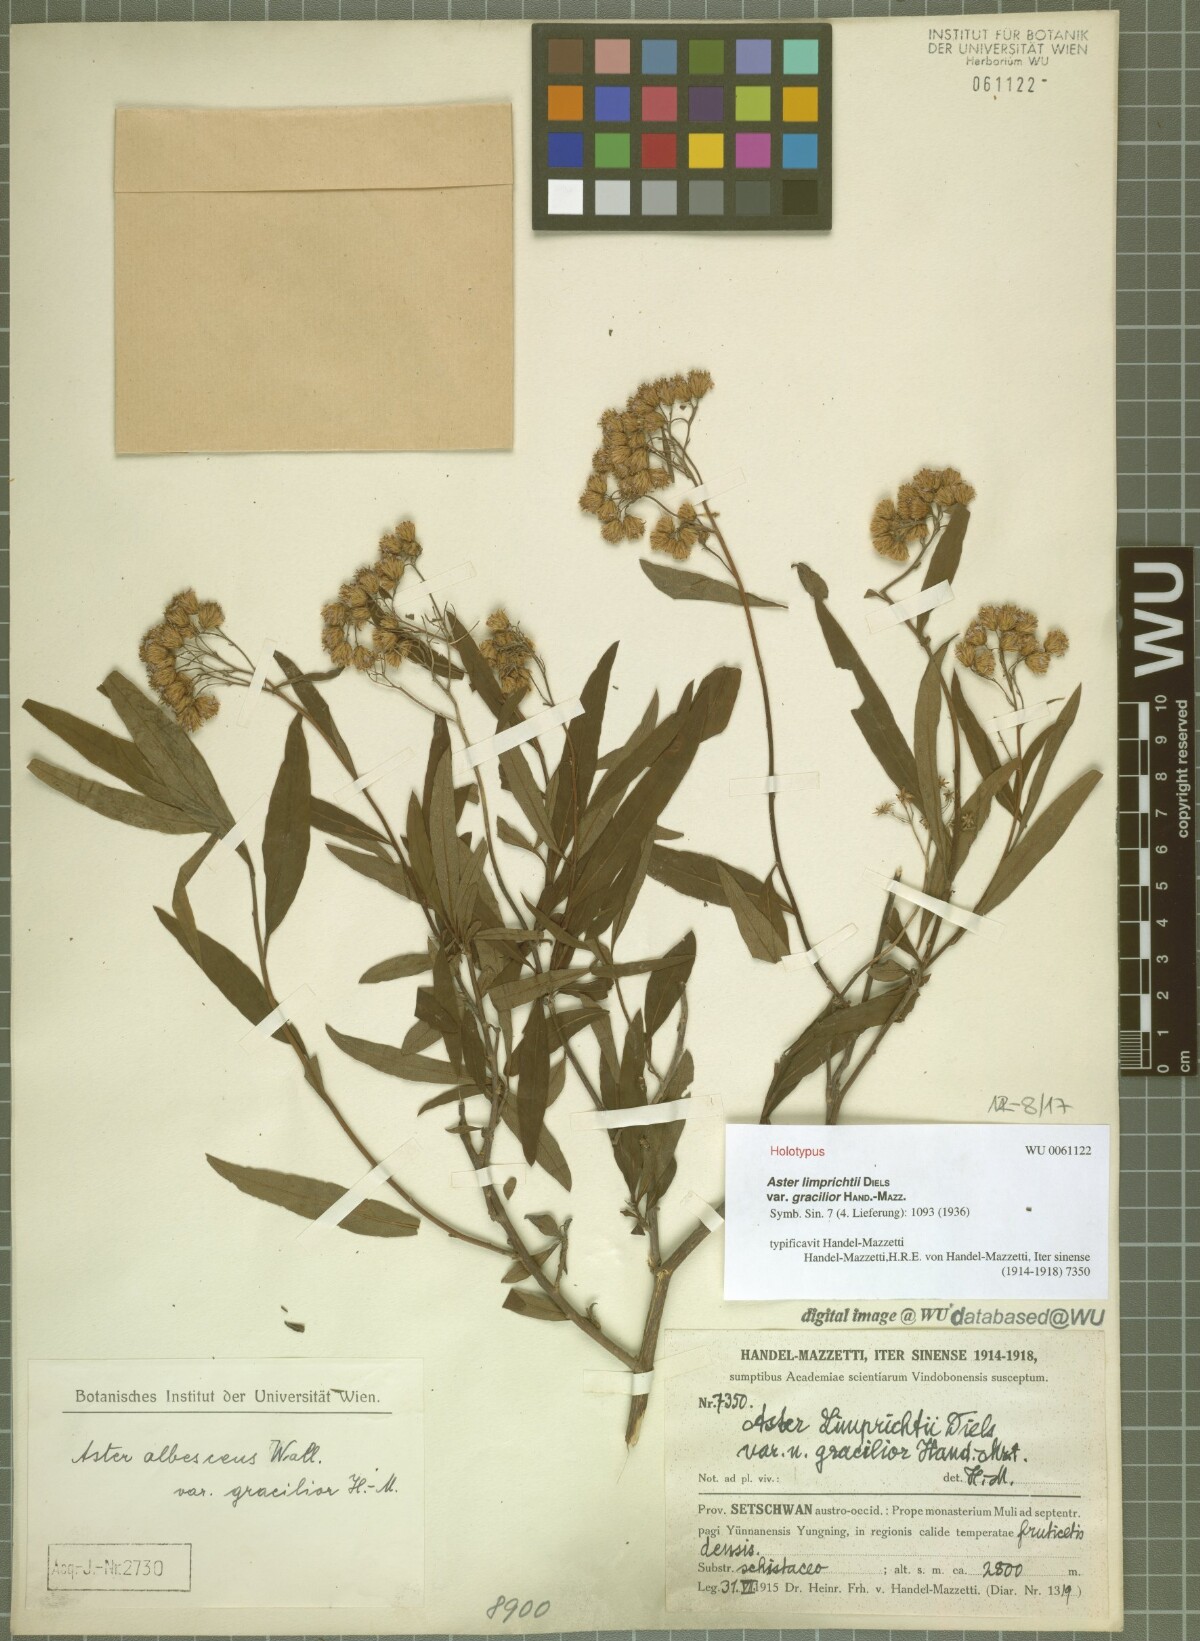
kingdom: Plantae
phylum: Tracheophyta
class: Magnoliopsida
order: Asterales
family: Asteraceae
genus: Sinosidus
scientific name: Sinosidus albescens
